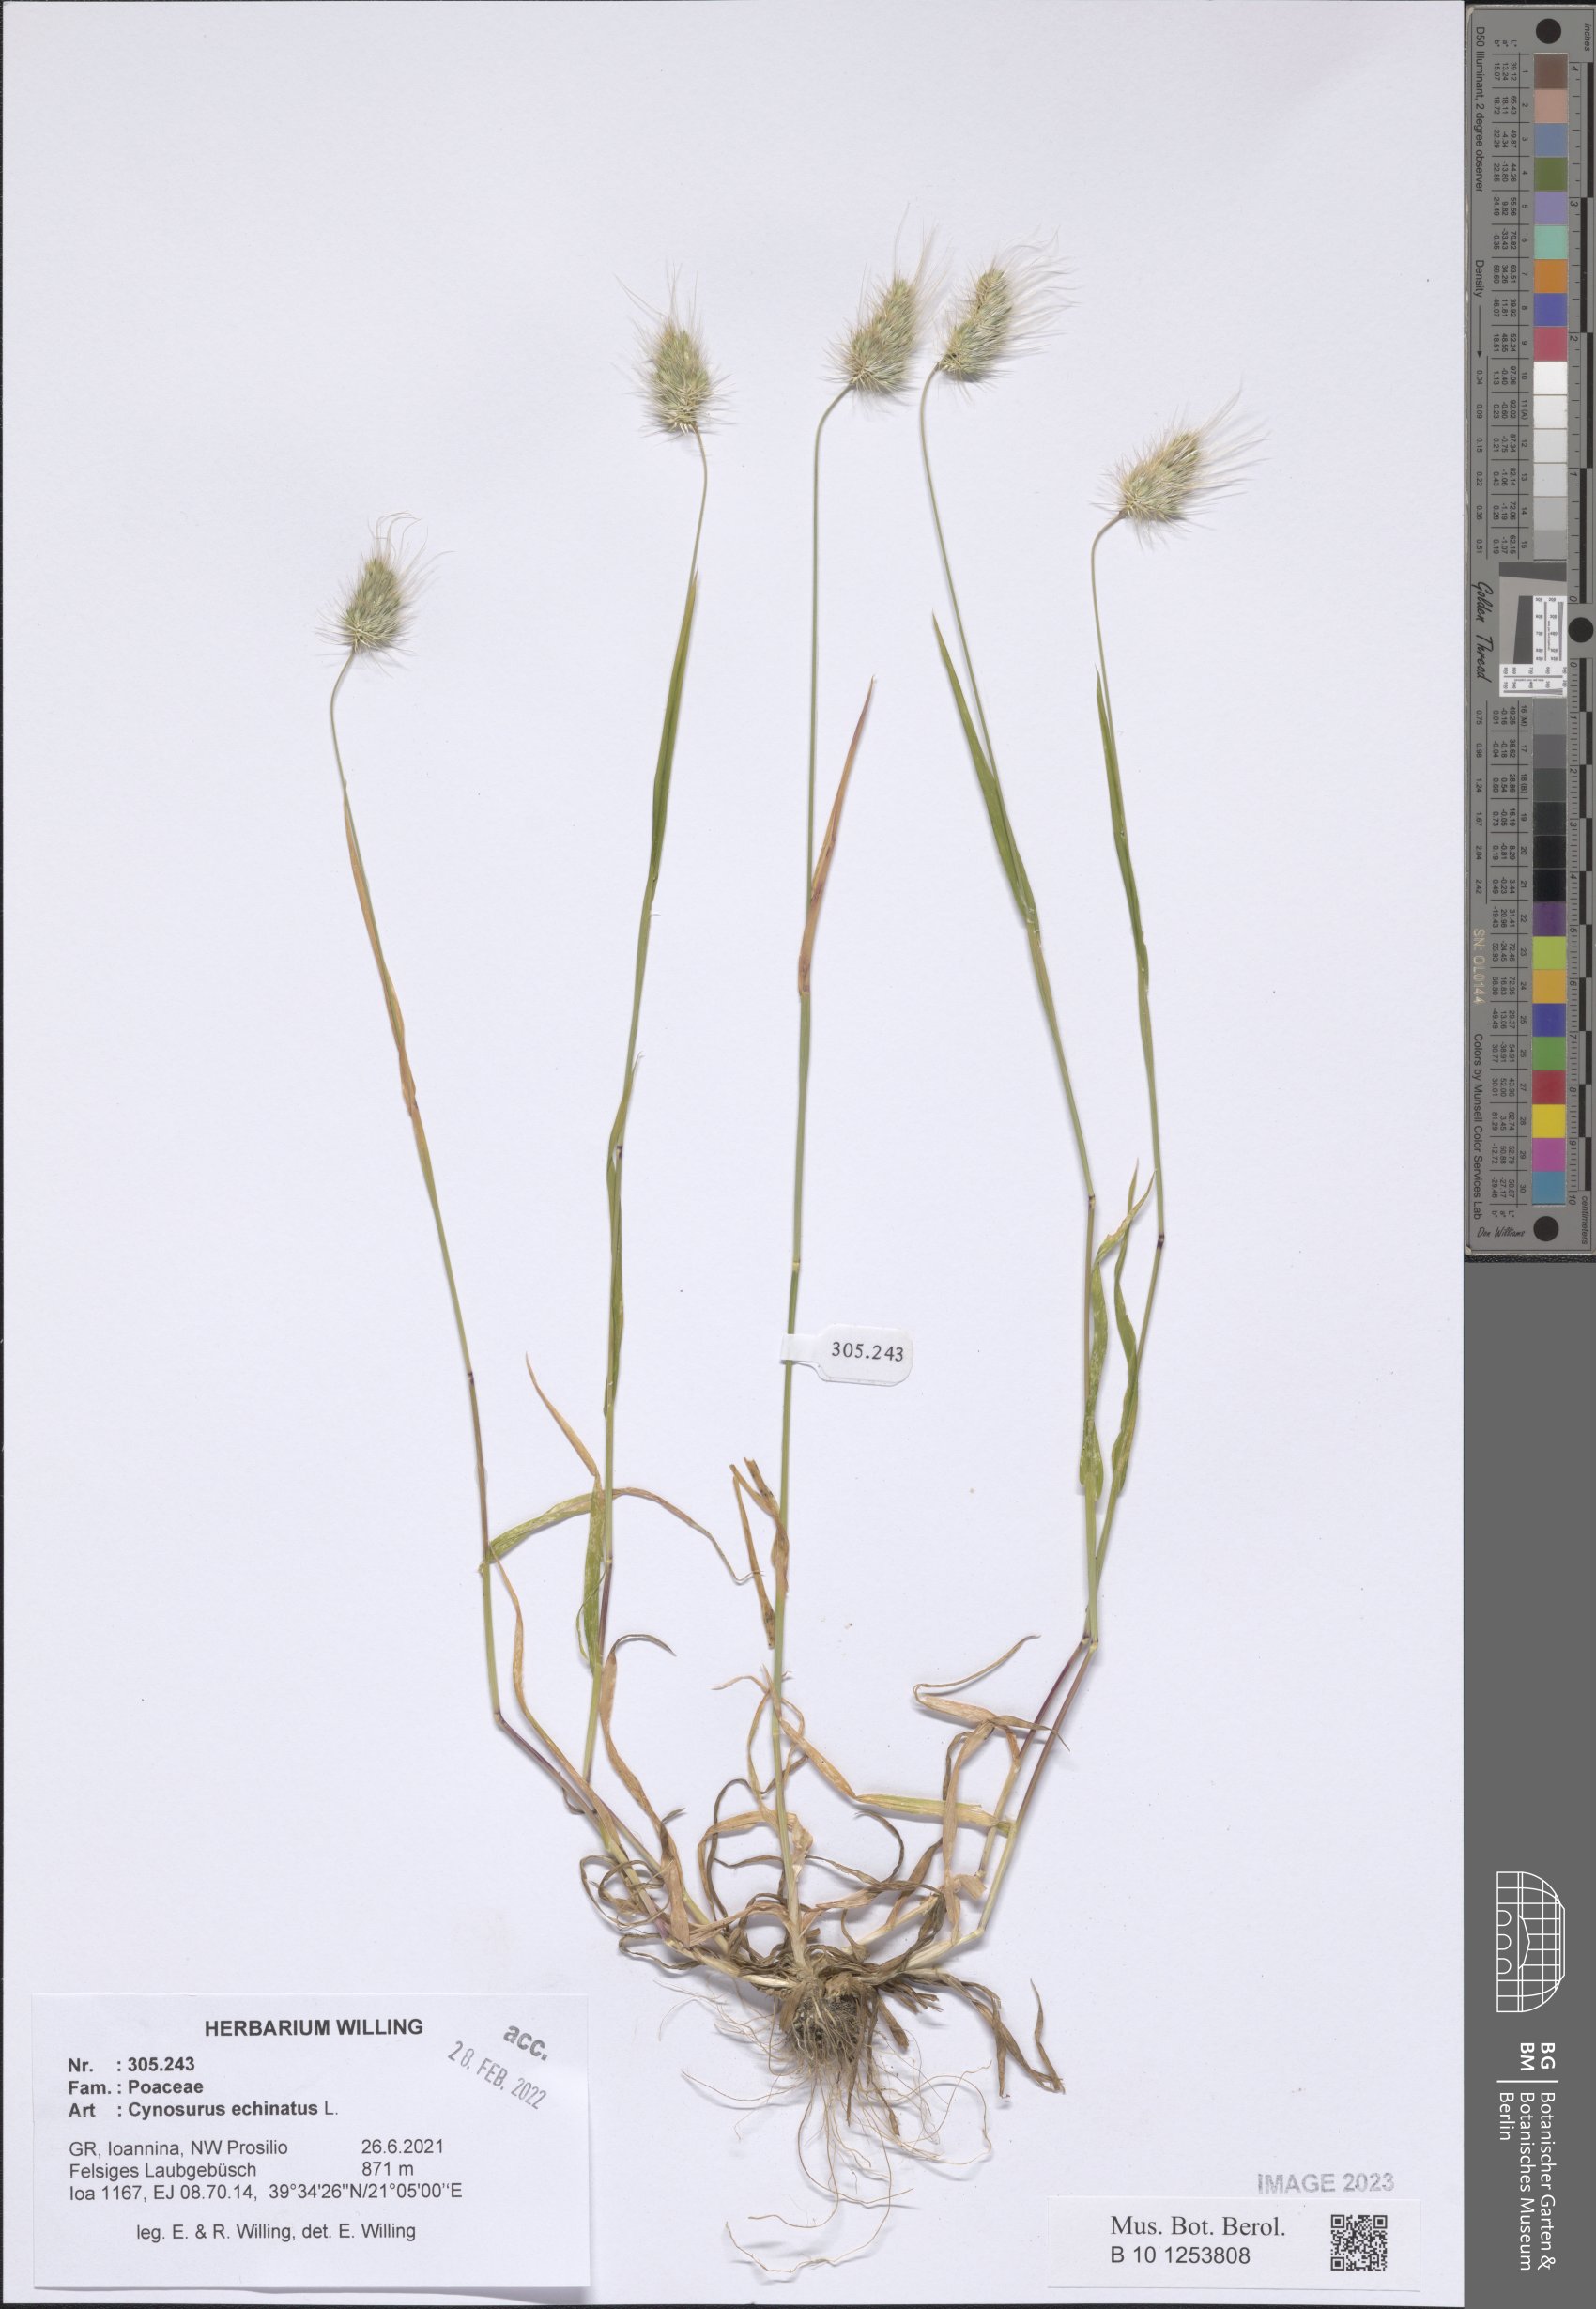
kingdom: Plantae
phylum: Tracheophyta
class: Liliopsida
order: Poales
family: Poaceae
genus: Cynosurus
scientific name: Cynosurus echinatus
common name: Rough dog's-tail
